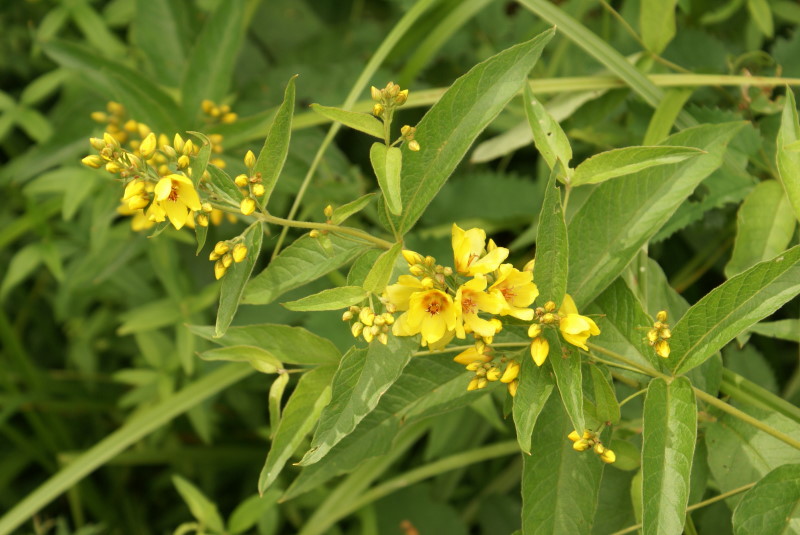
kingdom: Plantae
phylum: Tracheophyta
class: Magnoliopsida
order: Ericales
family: Primulaceae
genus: Lysimachia
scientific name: Lysimachia vulgaris
